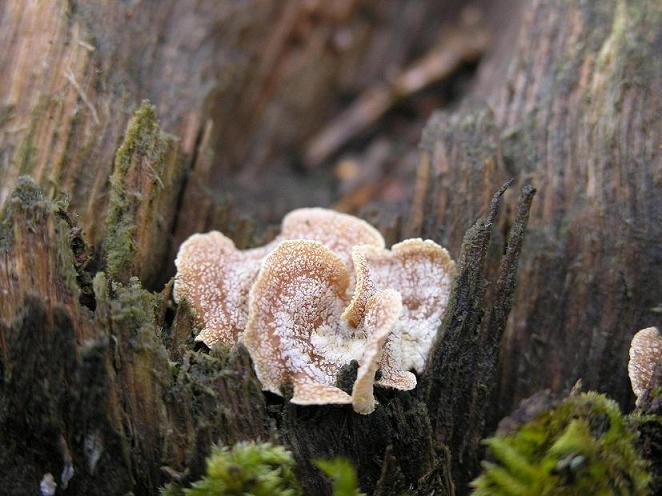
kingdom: Fungi
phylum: Basidiomycota
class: Agaricomycetes
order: Agaricales
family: Mycenaceae
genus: Panellus
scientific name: Panellus stipticus
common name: kliddet epaulethat
